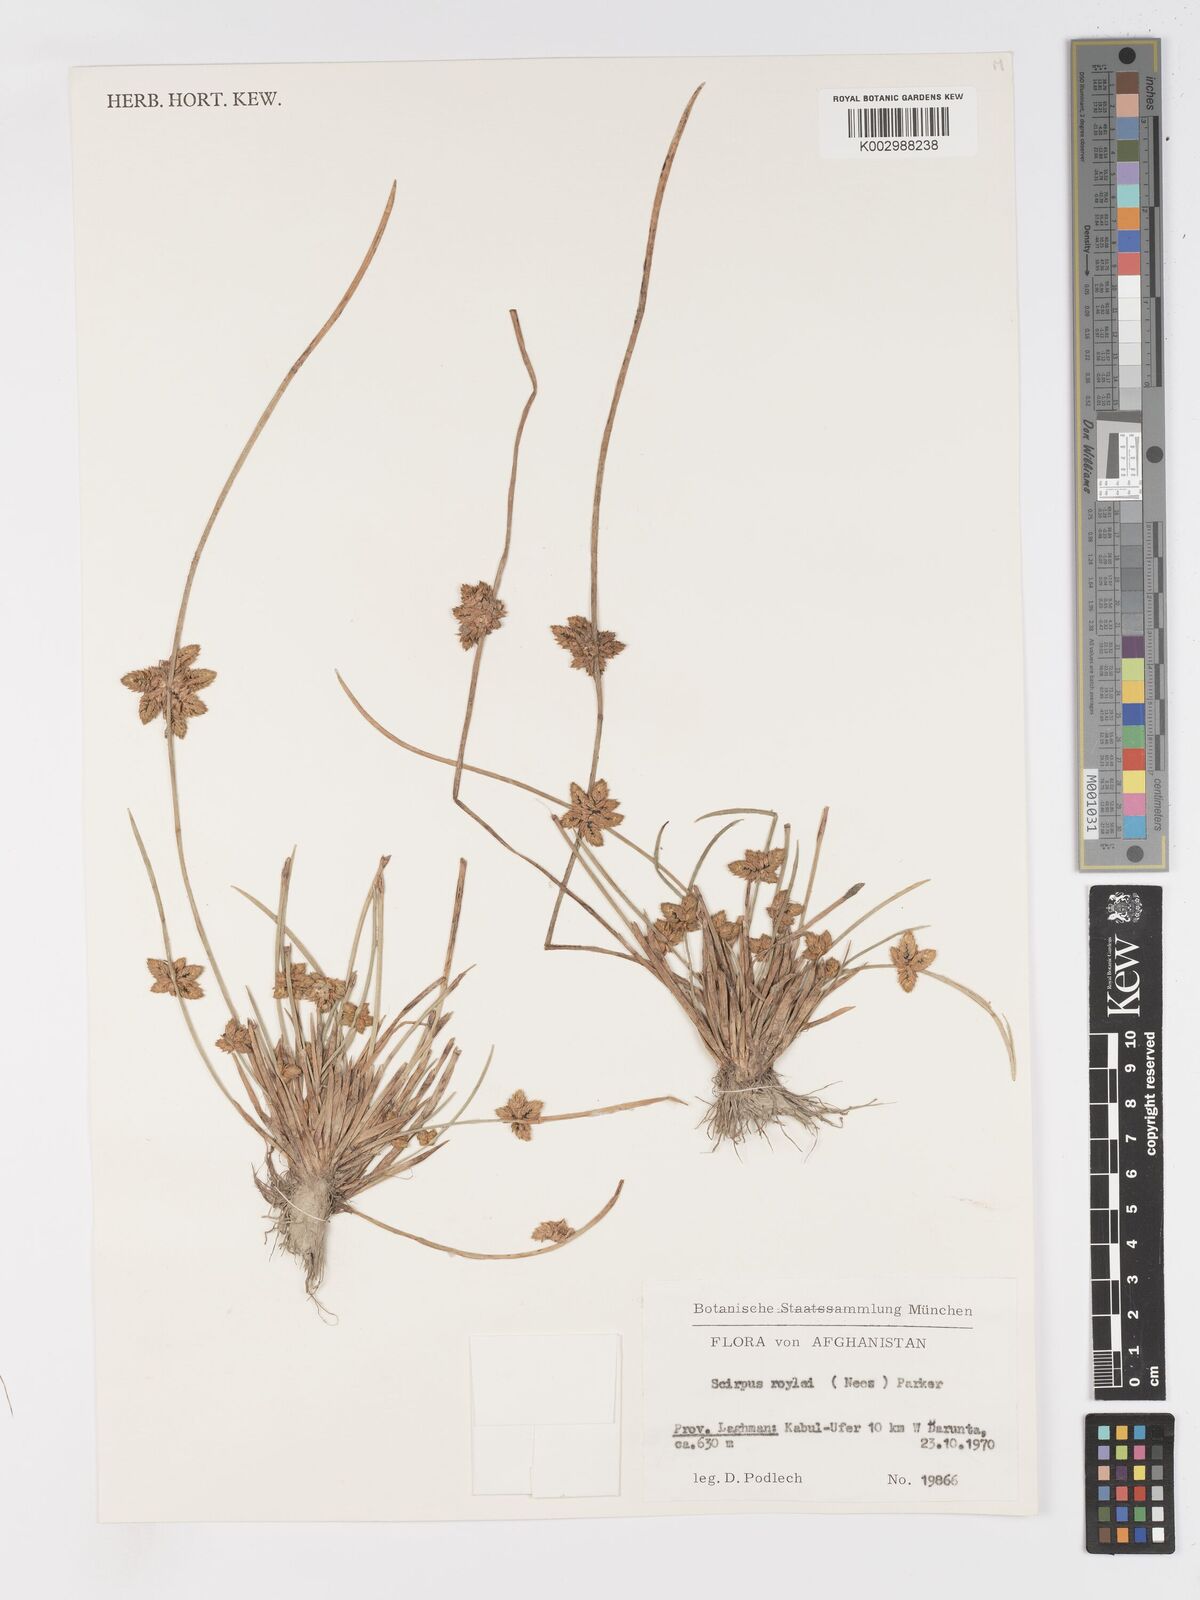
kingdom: Plantae
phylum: Tracheophyta
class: Liliopsida
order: Poales
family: Cyperaceae
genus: Schoenoplectiella
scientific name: Schoenoplectiella roylei
